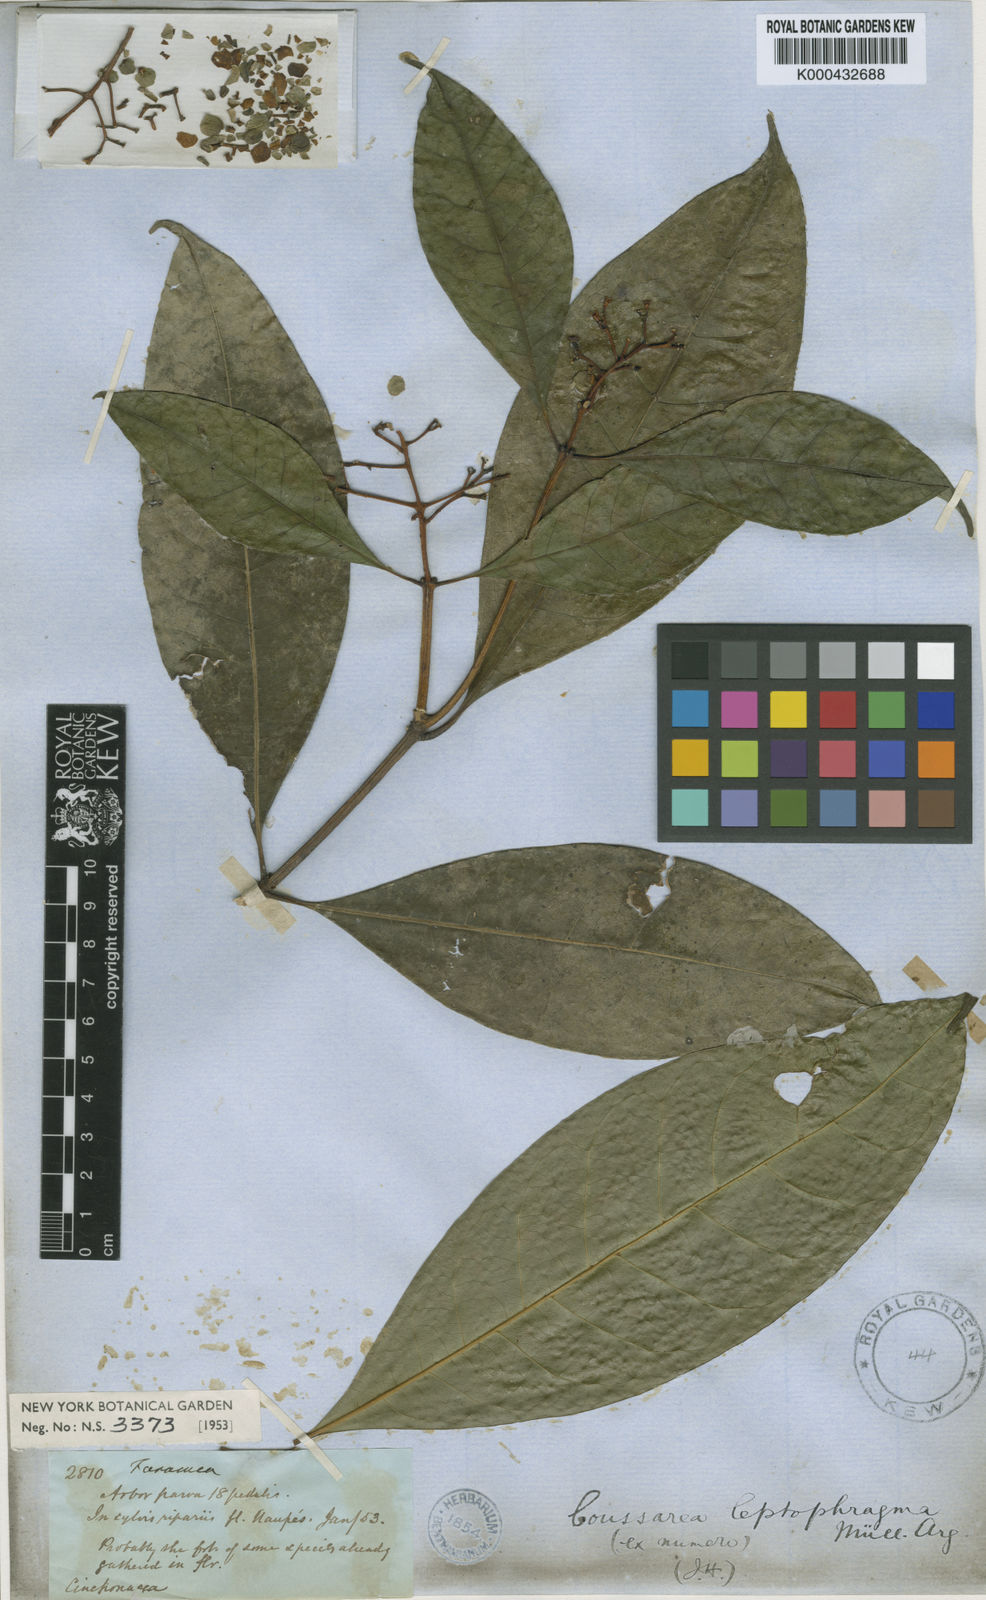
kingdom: Plantae
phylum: Tracheophyta
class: Magnoliopsida
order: Gentianales
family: Rubiaceae
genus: Coussarea
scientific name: Coussarea
